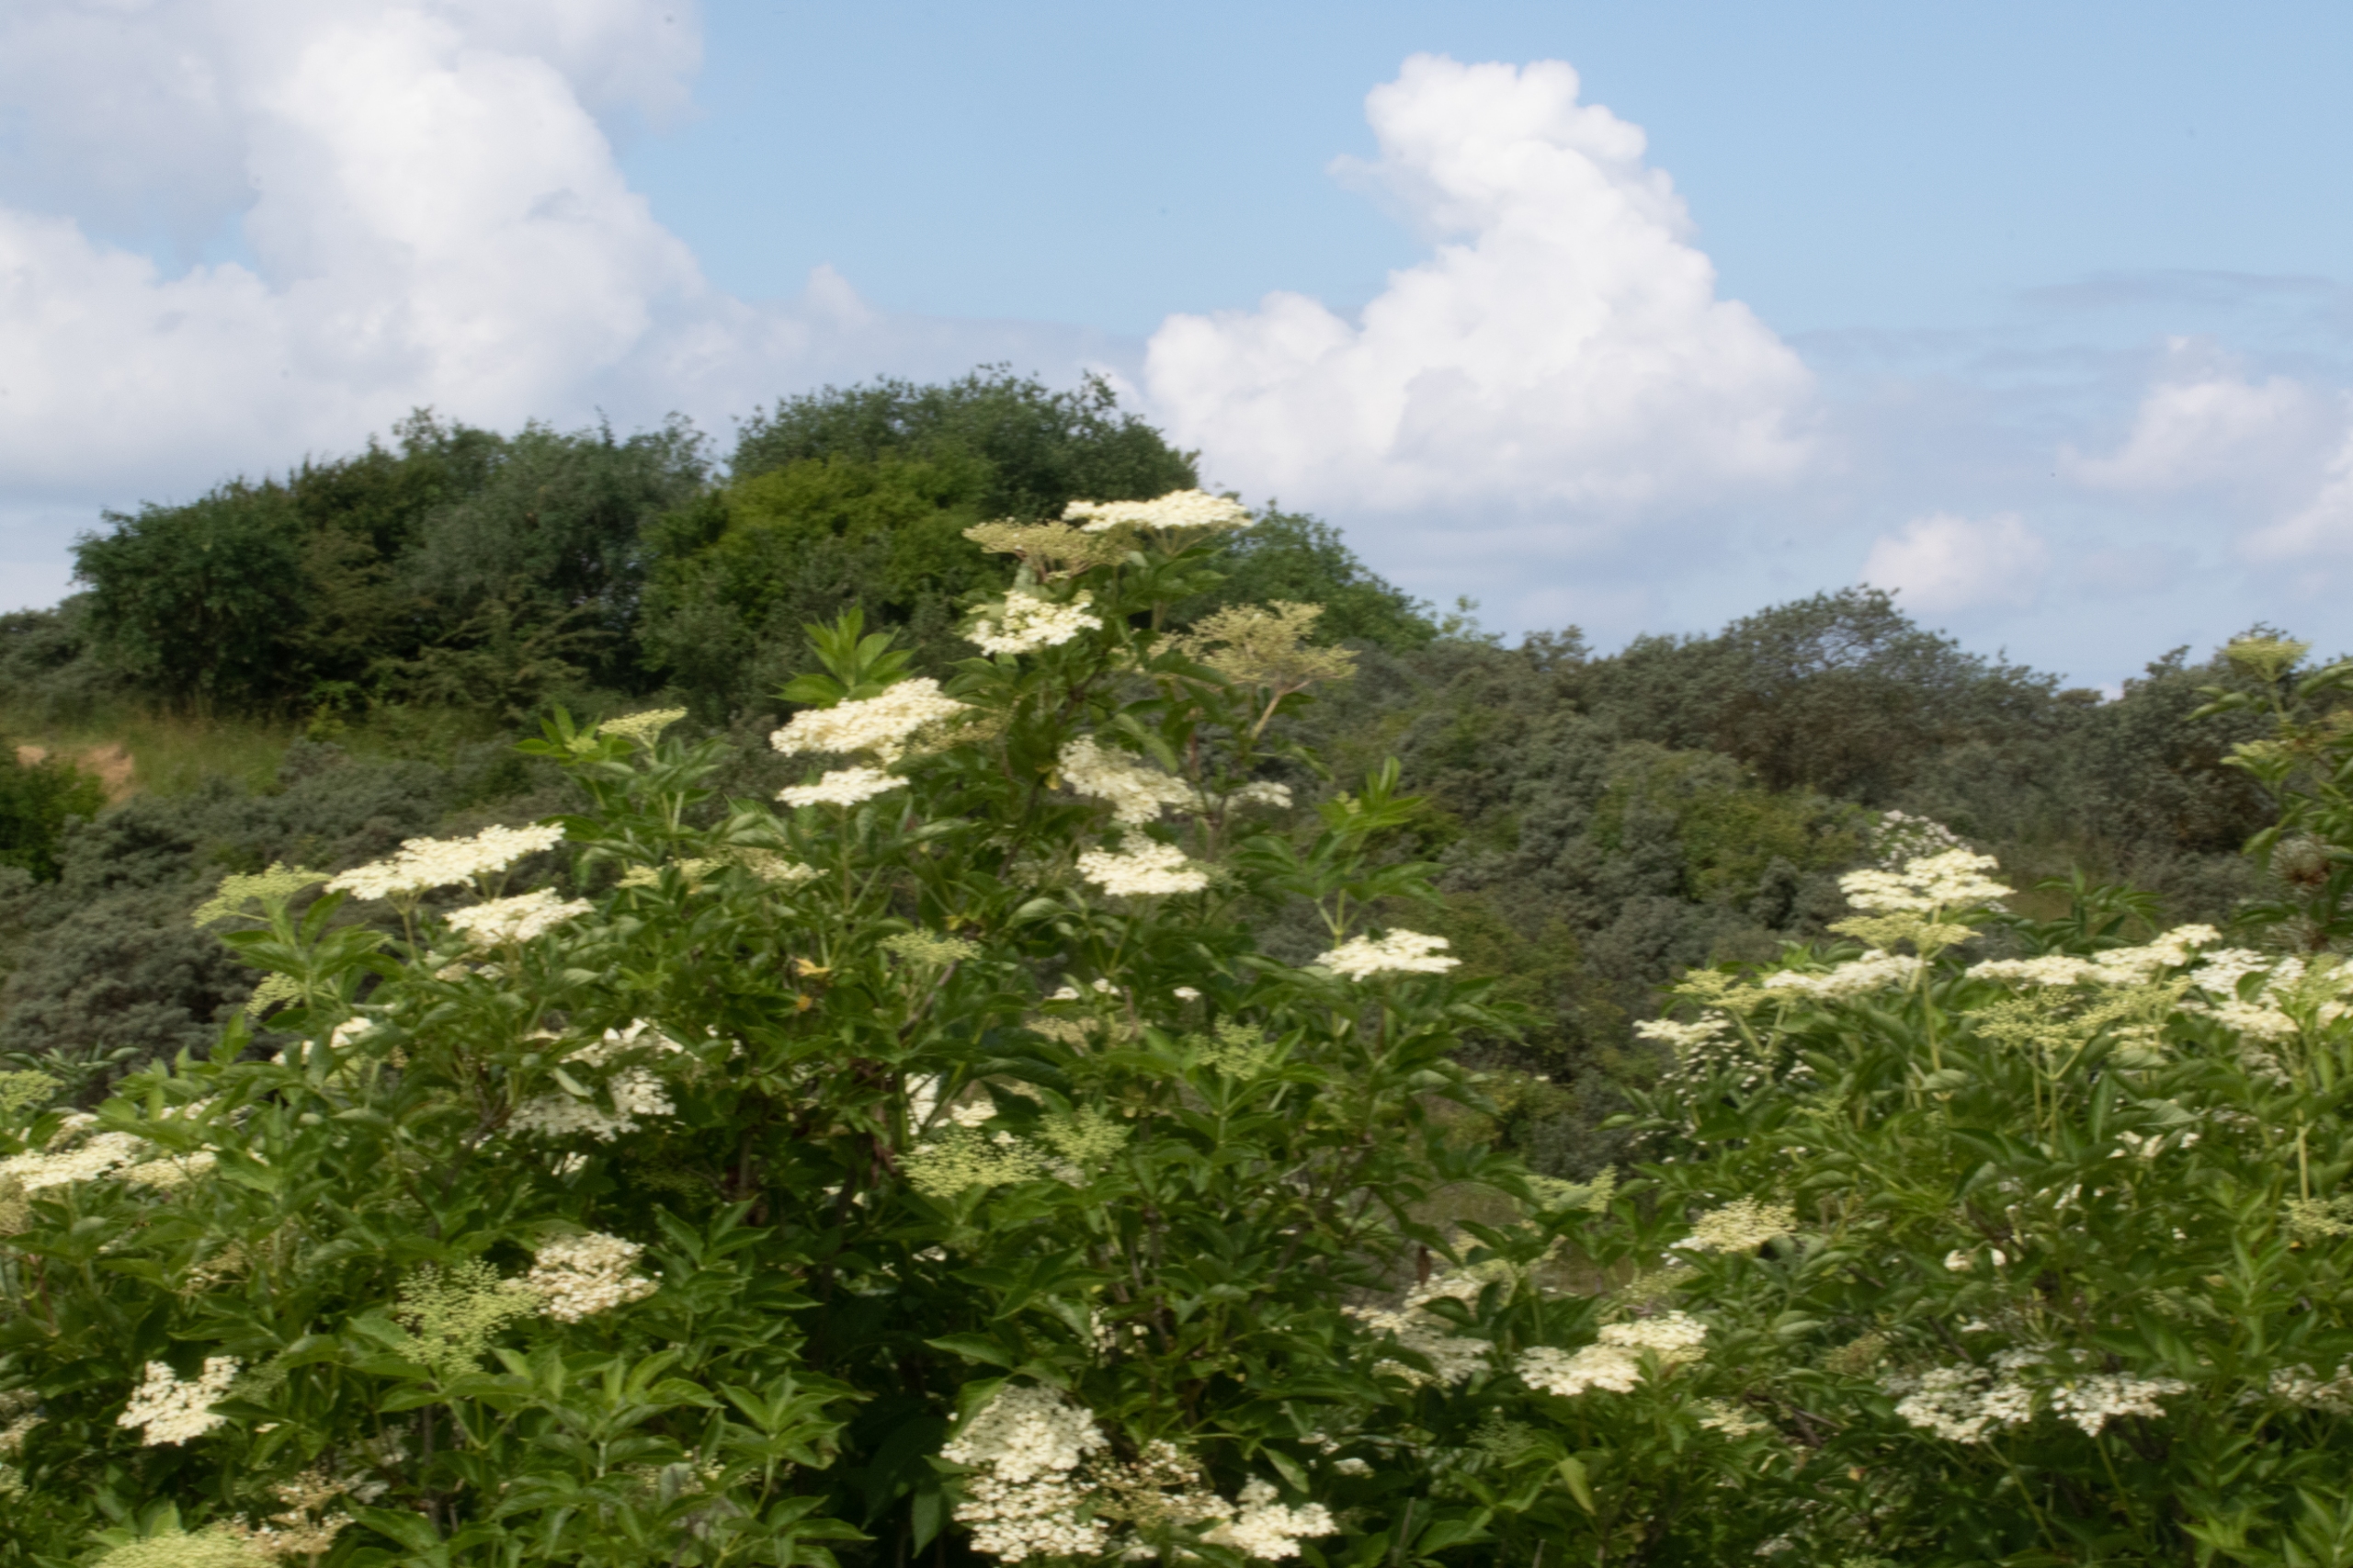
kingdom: Plantae
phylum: Tracheophyta
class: Magnoliopsida
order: Dipsacales
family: Viburnaceae
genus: Sambucus
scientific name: Sambucus nigra
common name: Almindelig hyld
